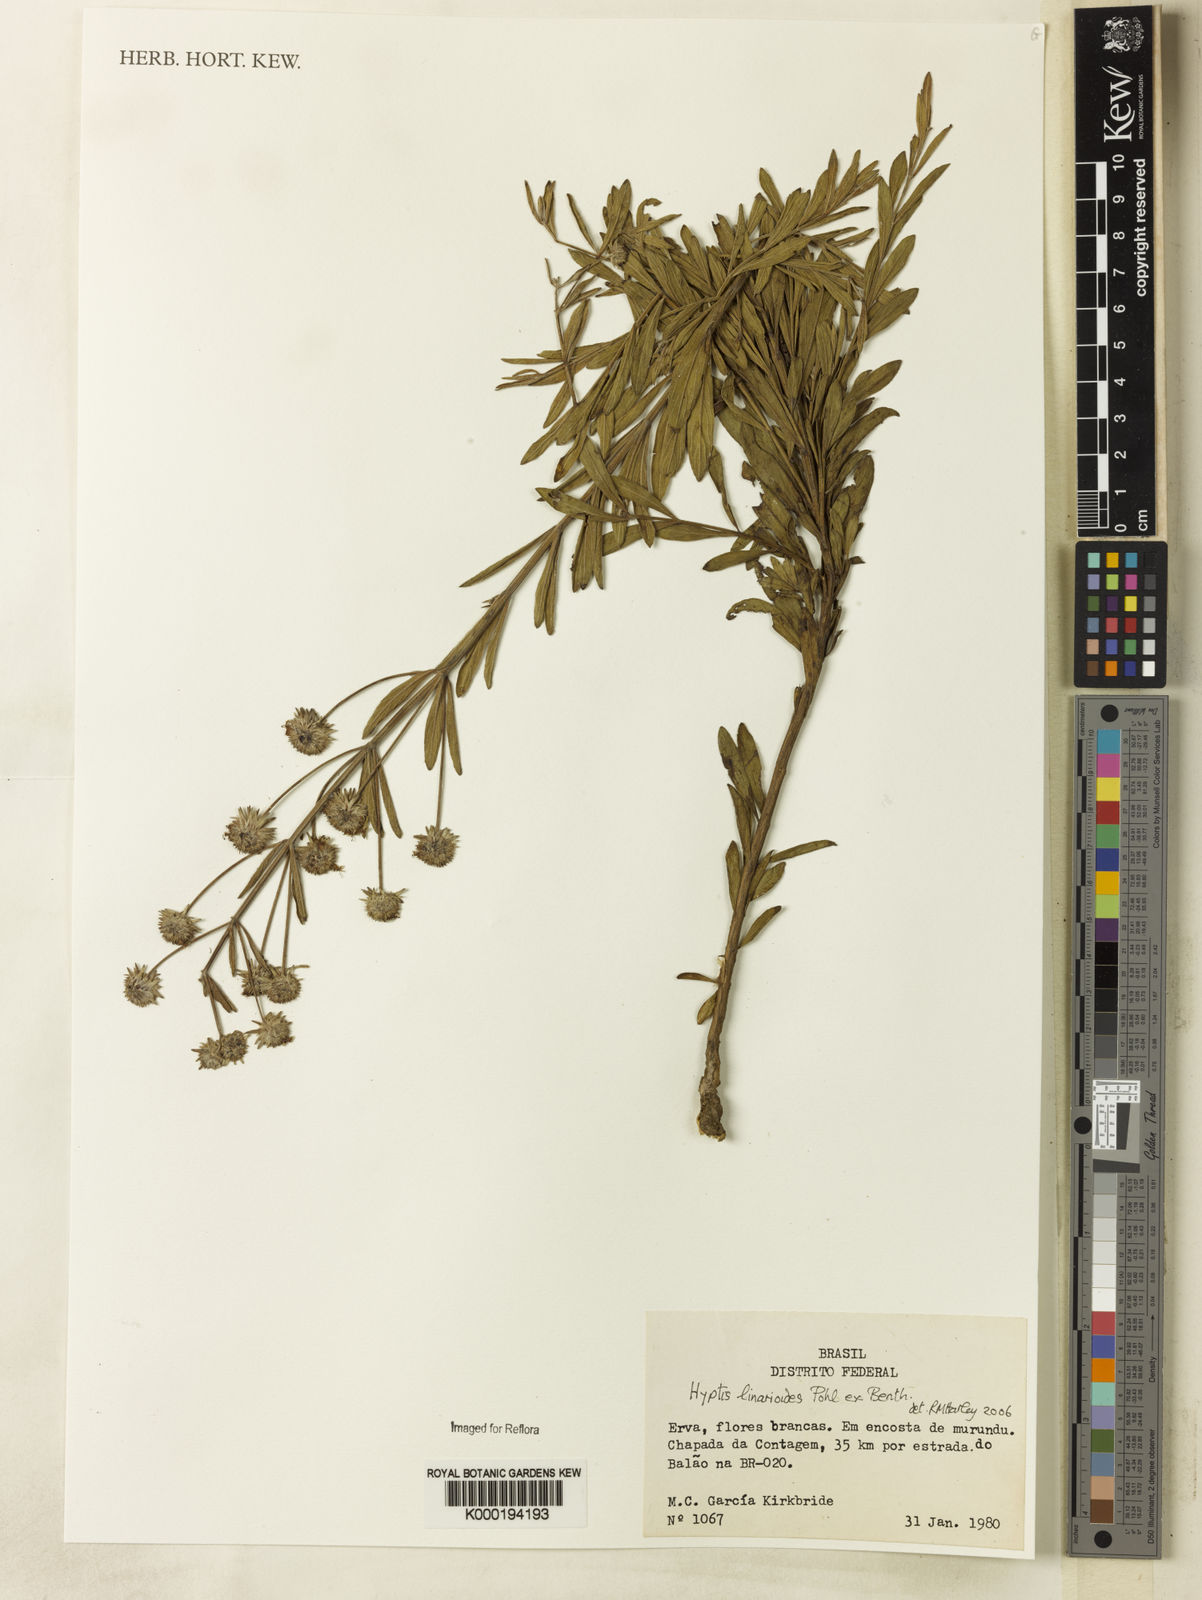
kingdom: Plantae
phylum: Tracheophyta
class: Magnoliopsida
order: Lamiales
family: Lamiaceae
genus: Hyptis
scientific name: Hyptis linarioides
